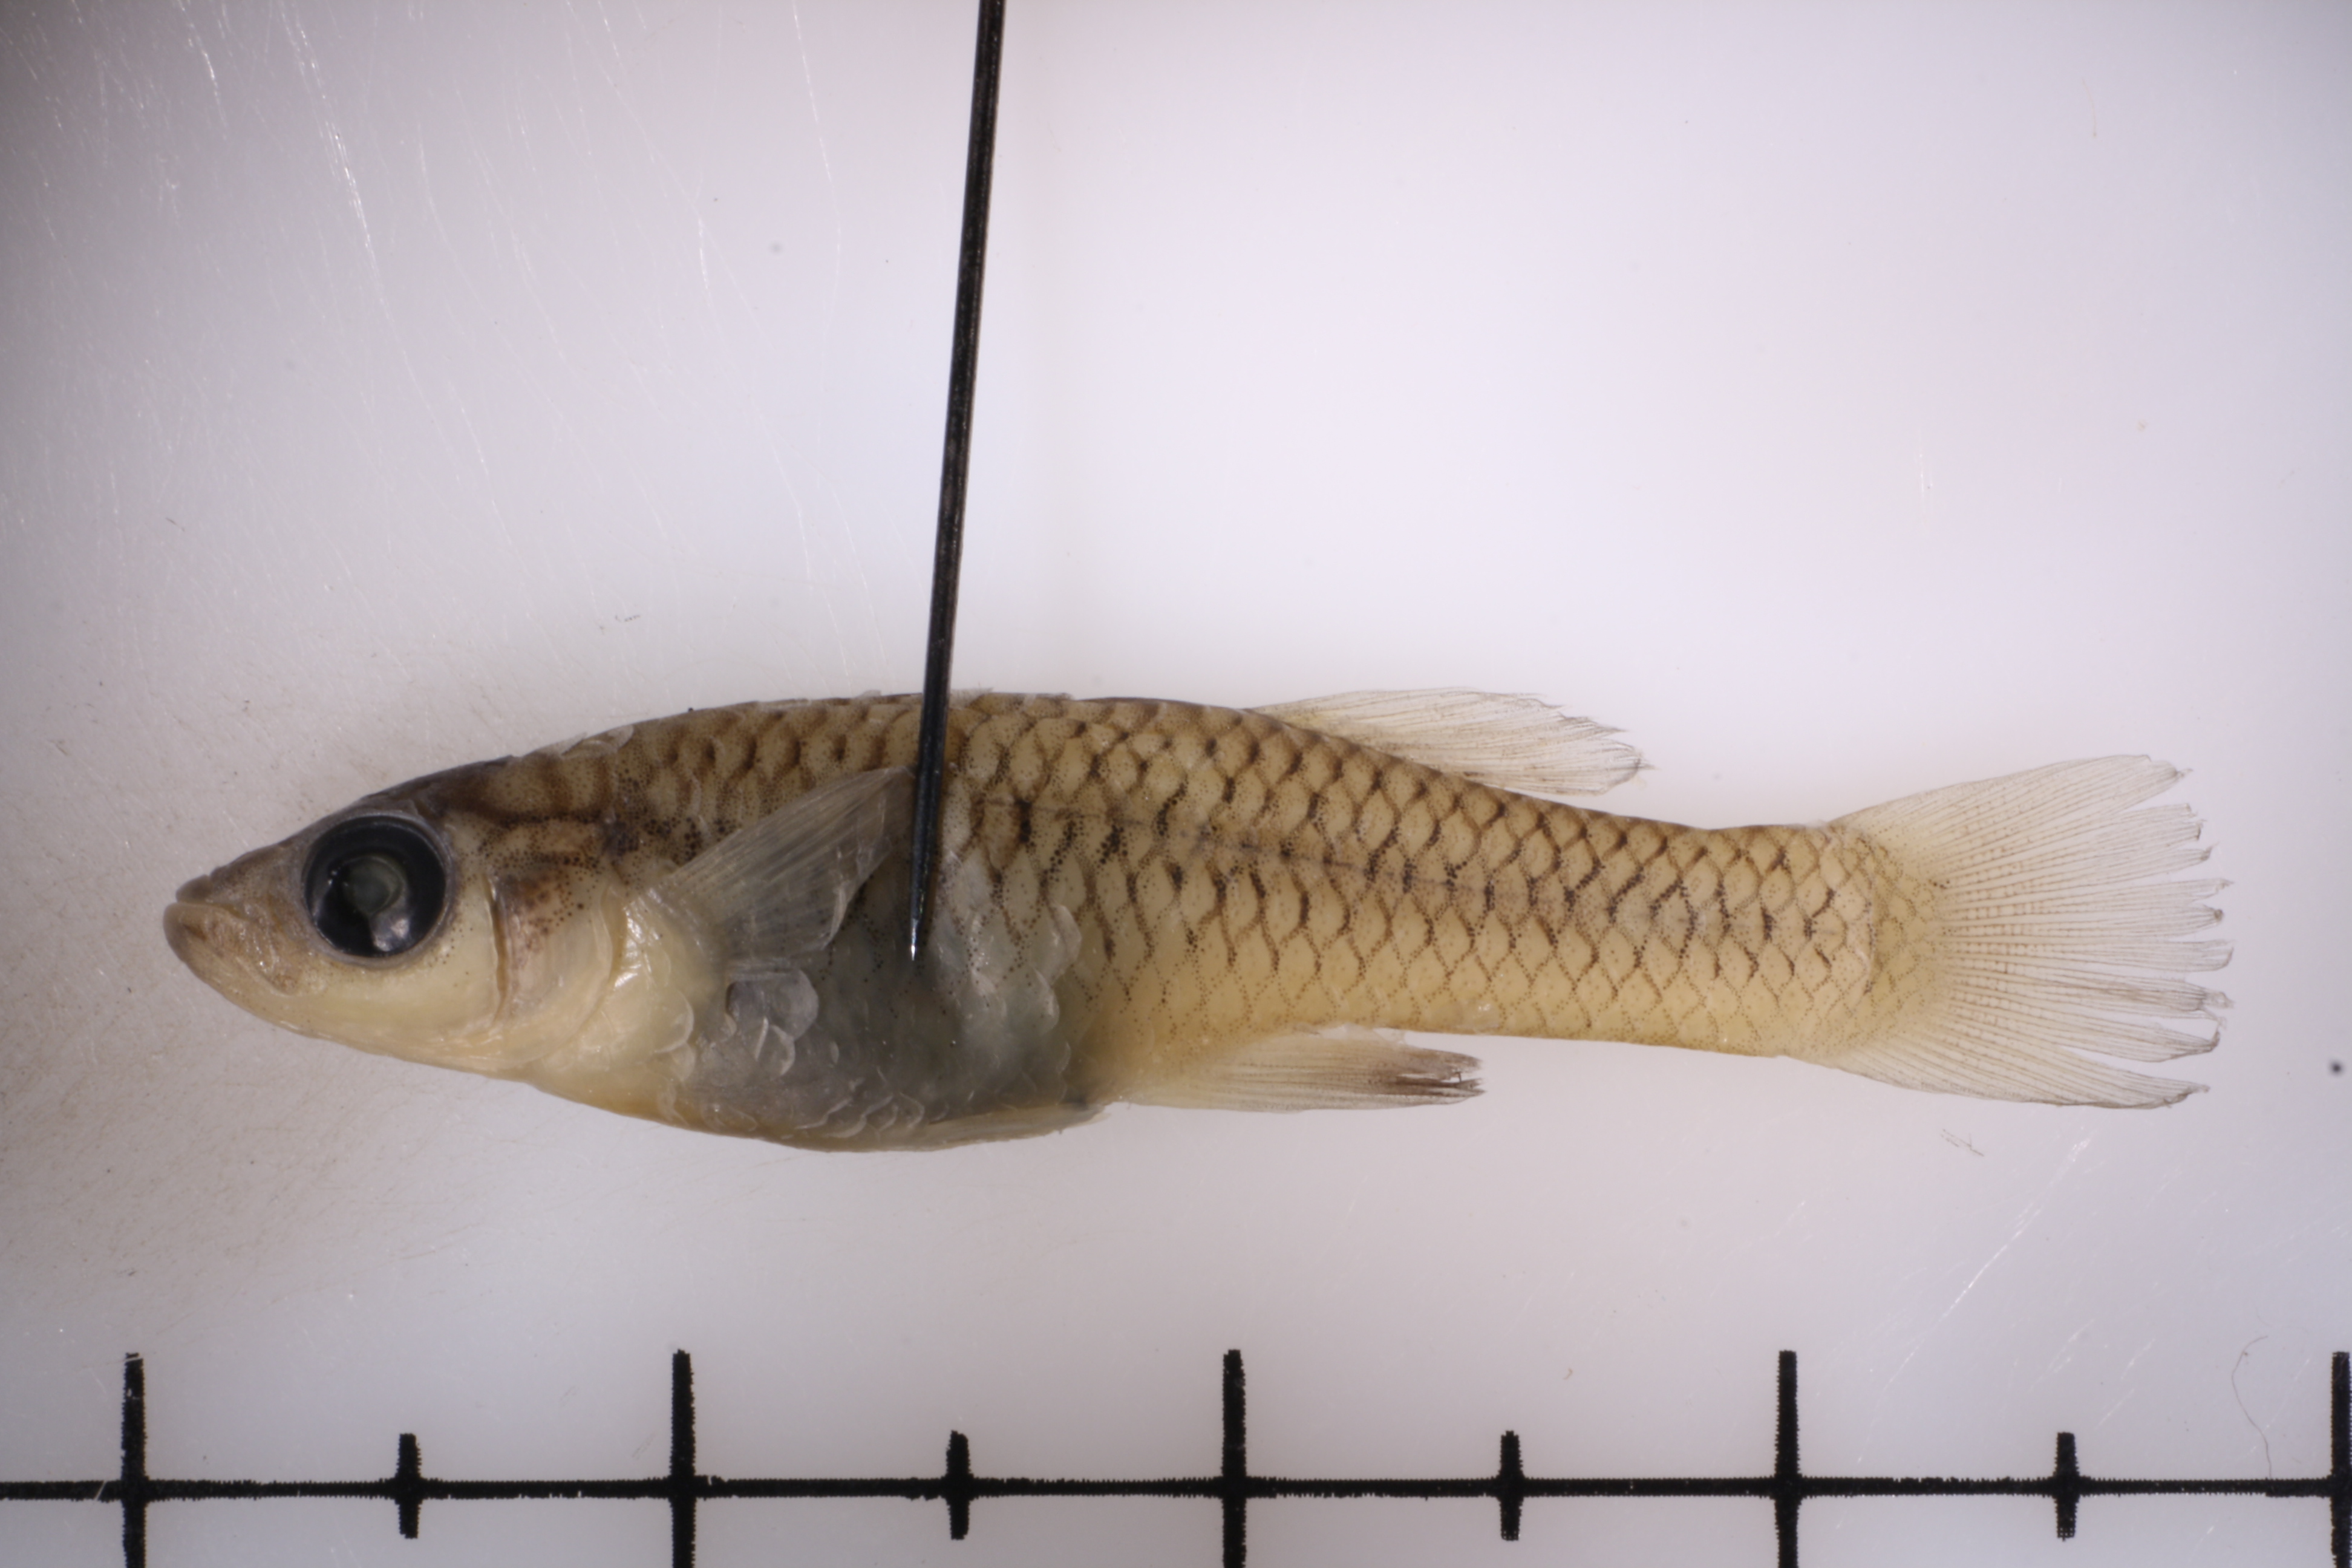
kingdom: Animalia
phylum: Chordata
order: Cyprinodontiformes
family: Poeciliidae
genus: Gambusia
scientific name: Gambusia clarkhubbsi
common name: San felipe gambusia
